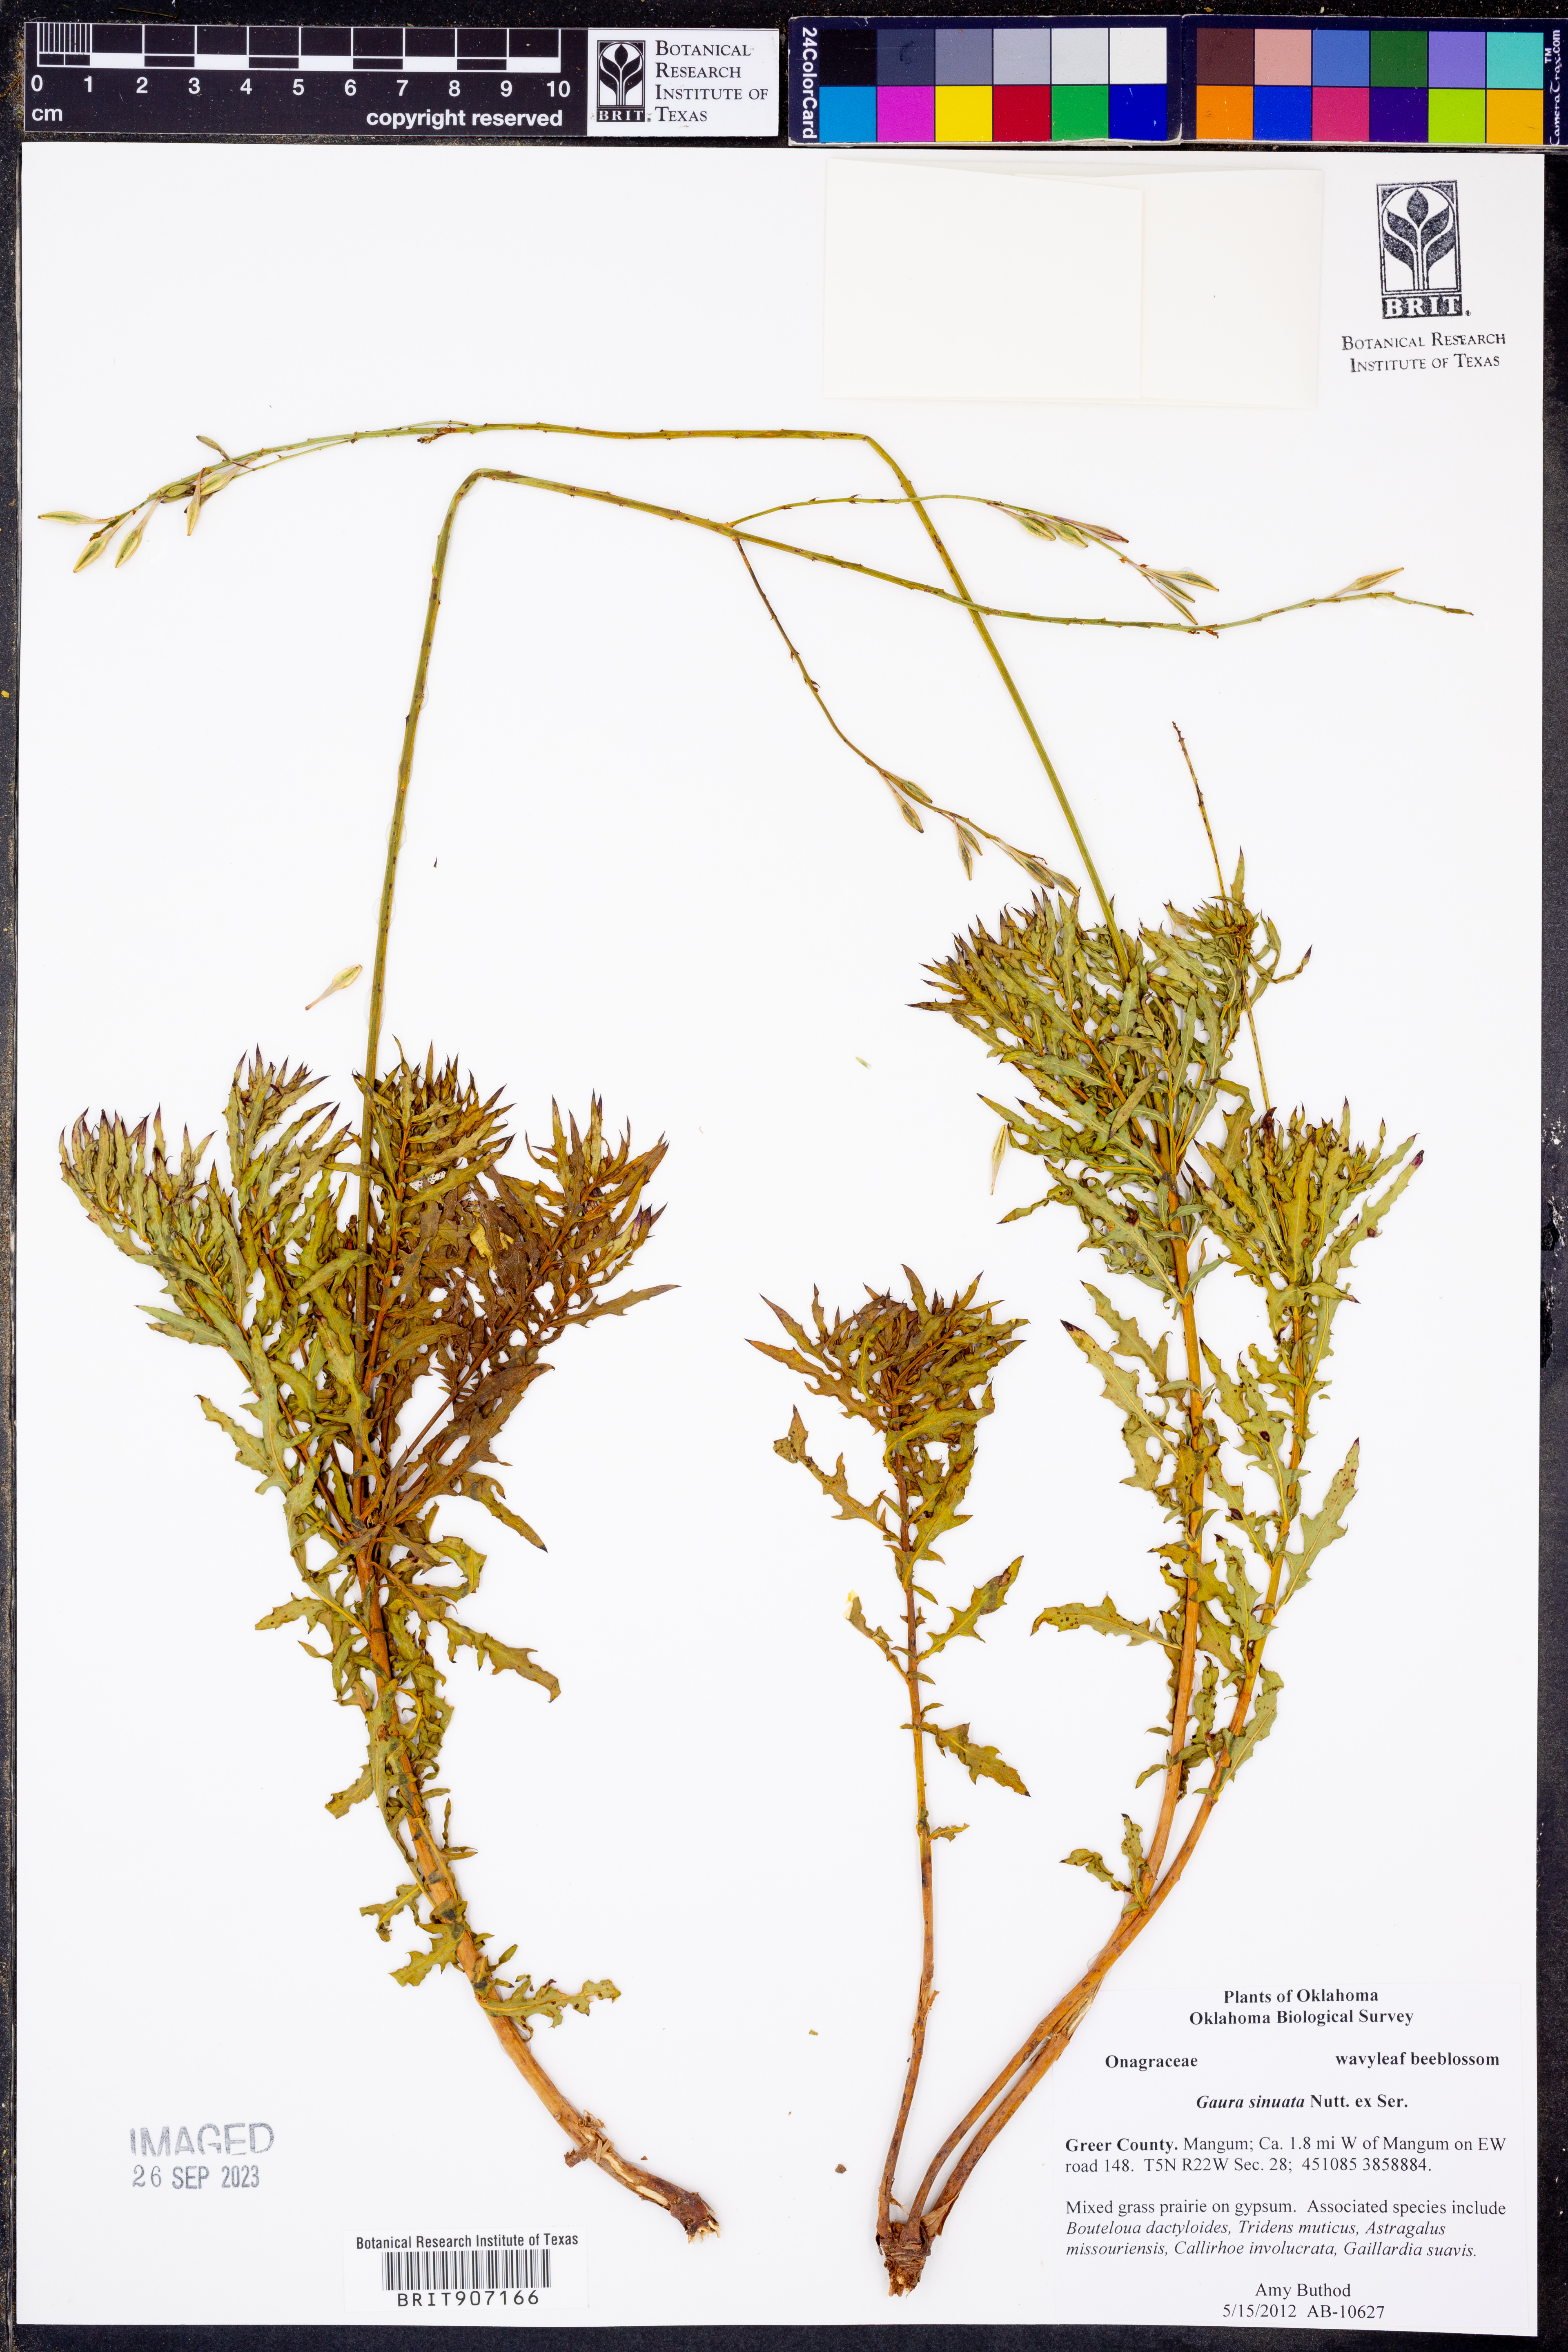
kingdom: Plantae
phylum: Tracheophyta
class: Magnoliopsida
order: Myrtales
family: Onagraceae
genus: Oenothera
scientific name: Oenothera sinuosa
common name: Wavyleaf beeblossom
